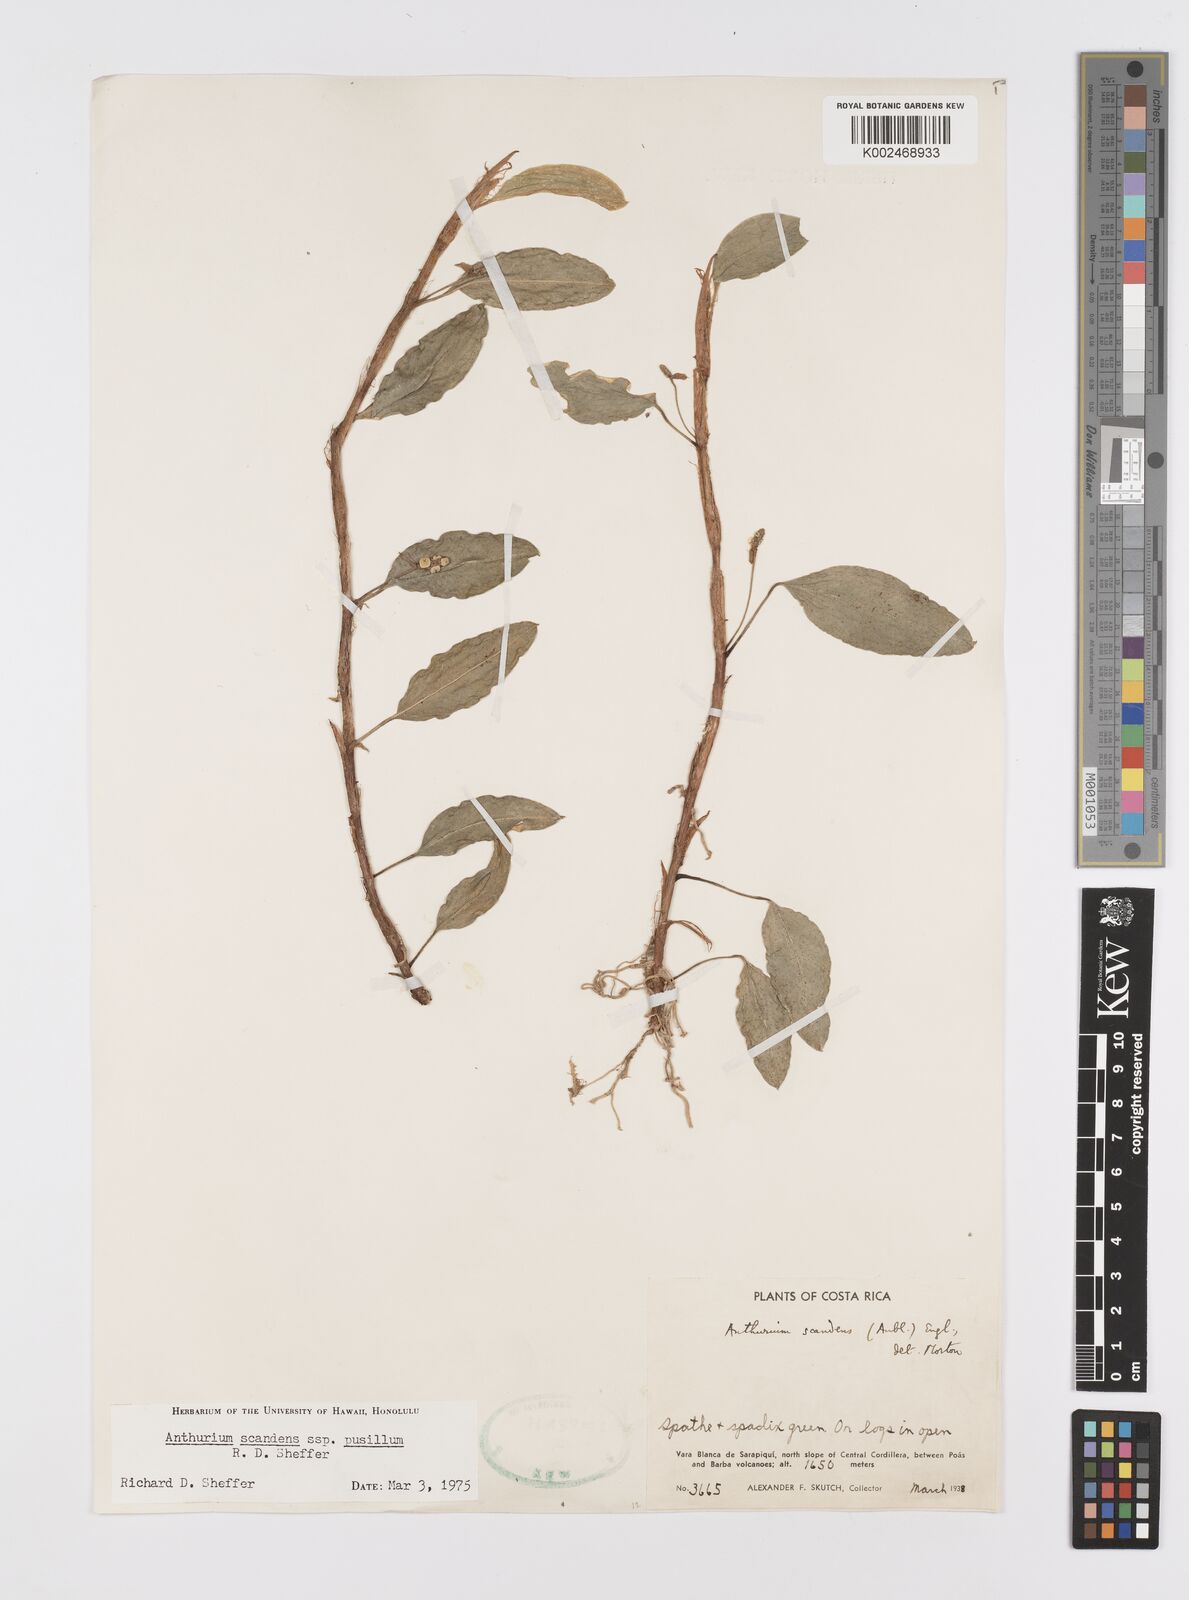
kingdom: Plantae
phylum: Tracheophyta
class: Liliopsida
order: Alismatales
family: Araceae
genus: Anthurium
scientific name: Anthurium scandens
